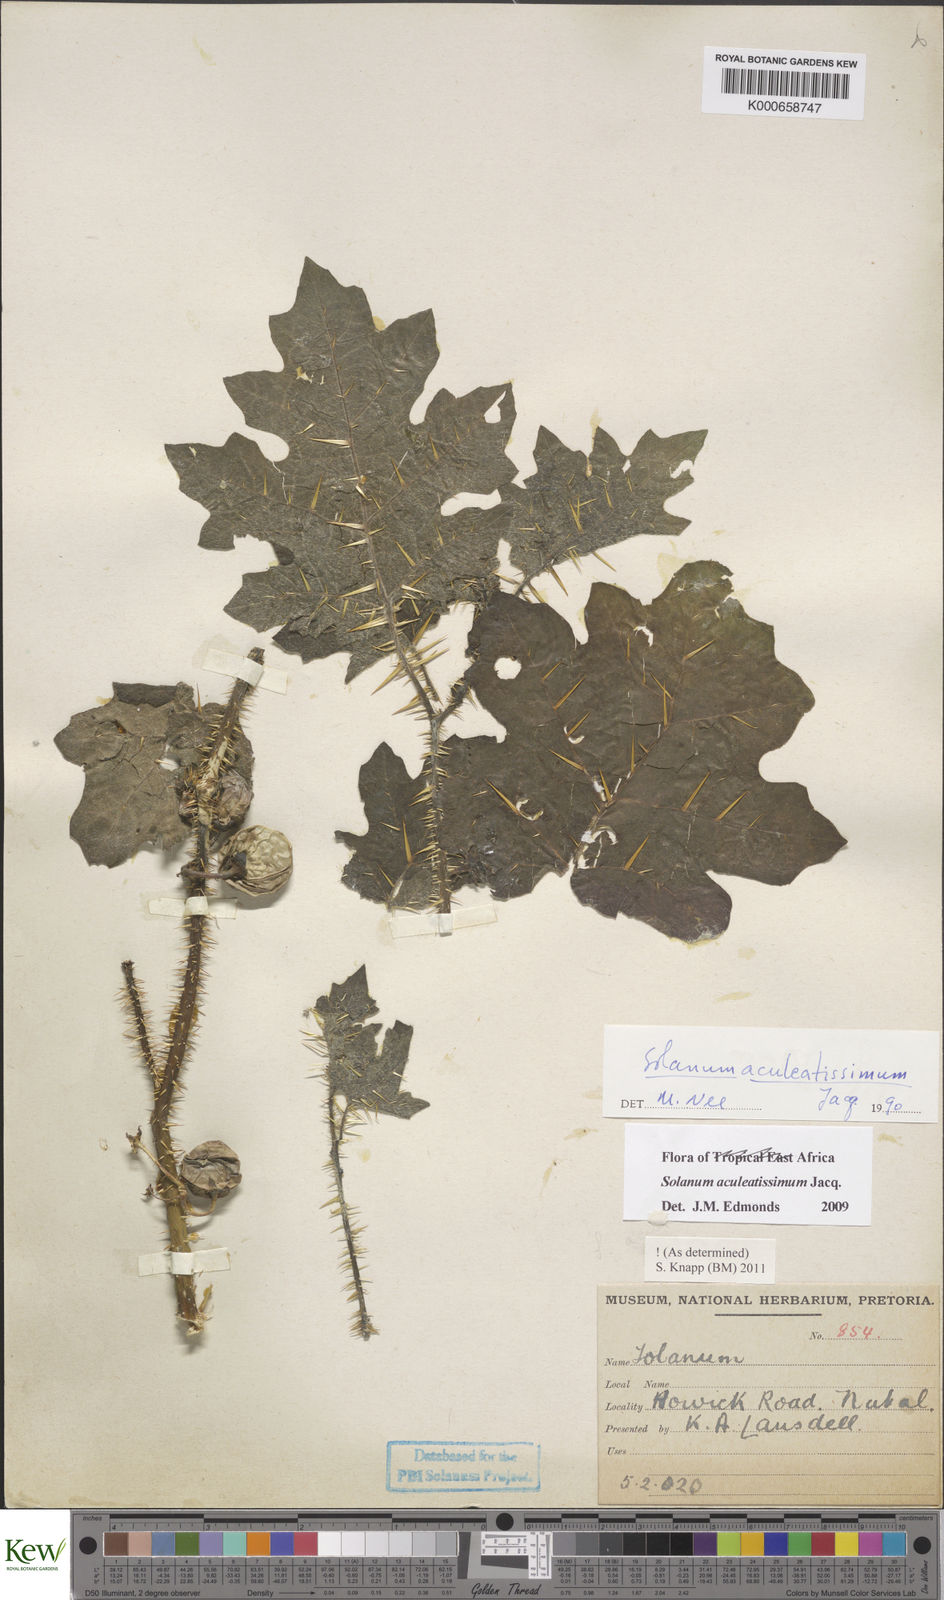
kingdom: Plantae
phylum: Tracheophyta
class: Magnoliopsida
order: Solanales
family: Solanaceae
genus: Solanum
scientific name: Solanum aculeatissimum
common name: Dutch eggplant
